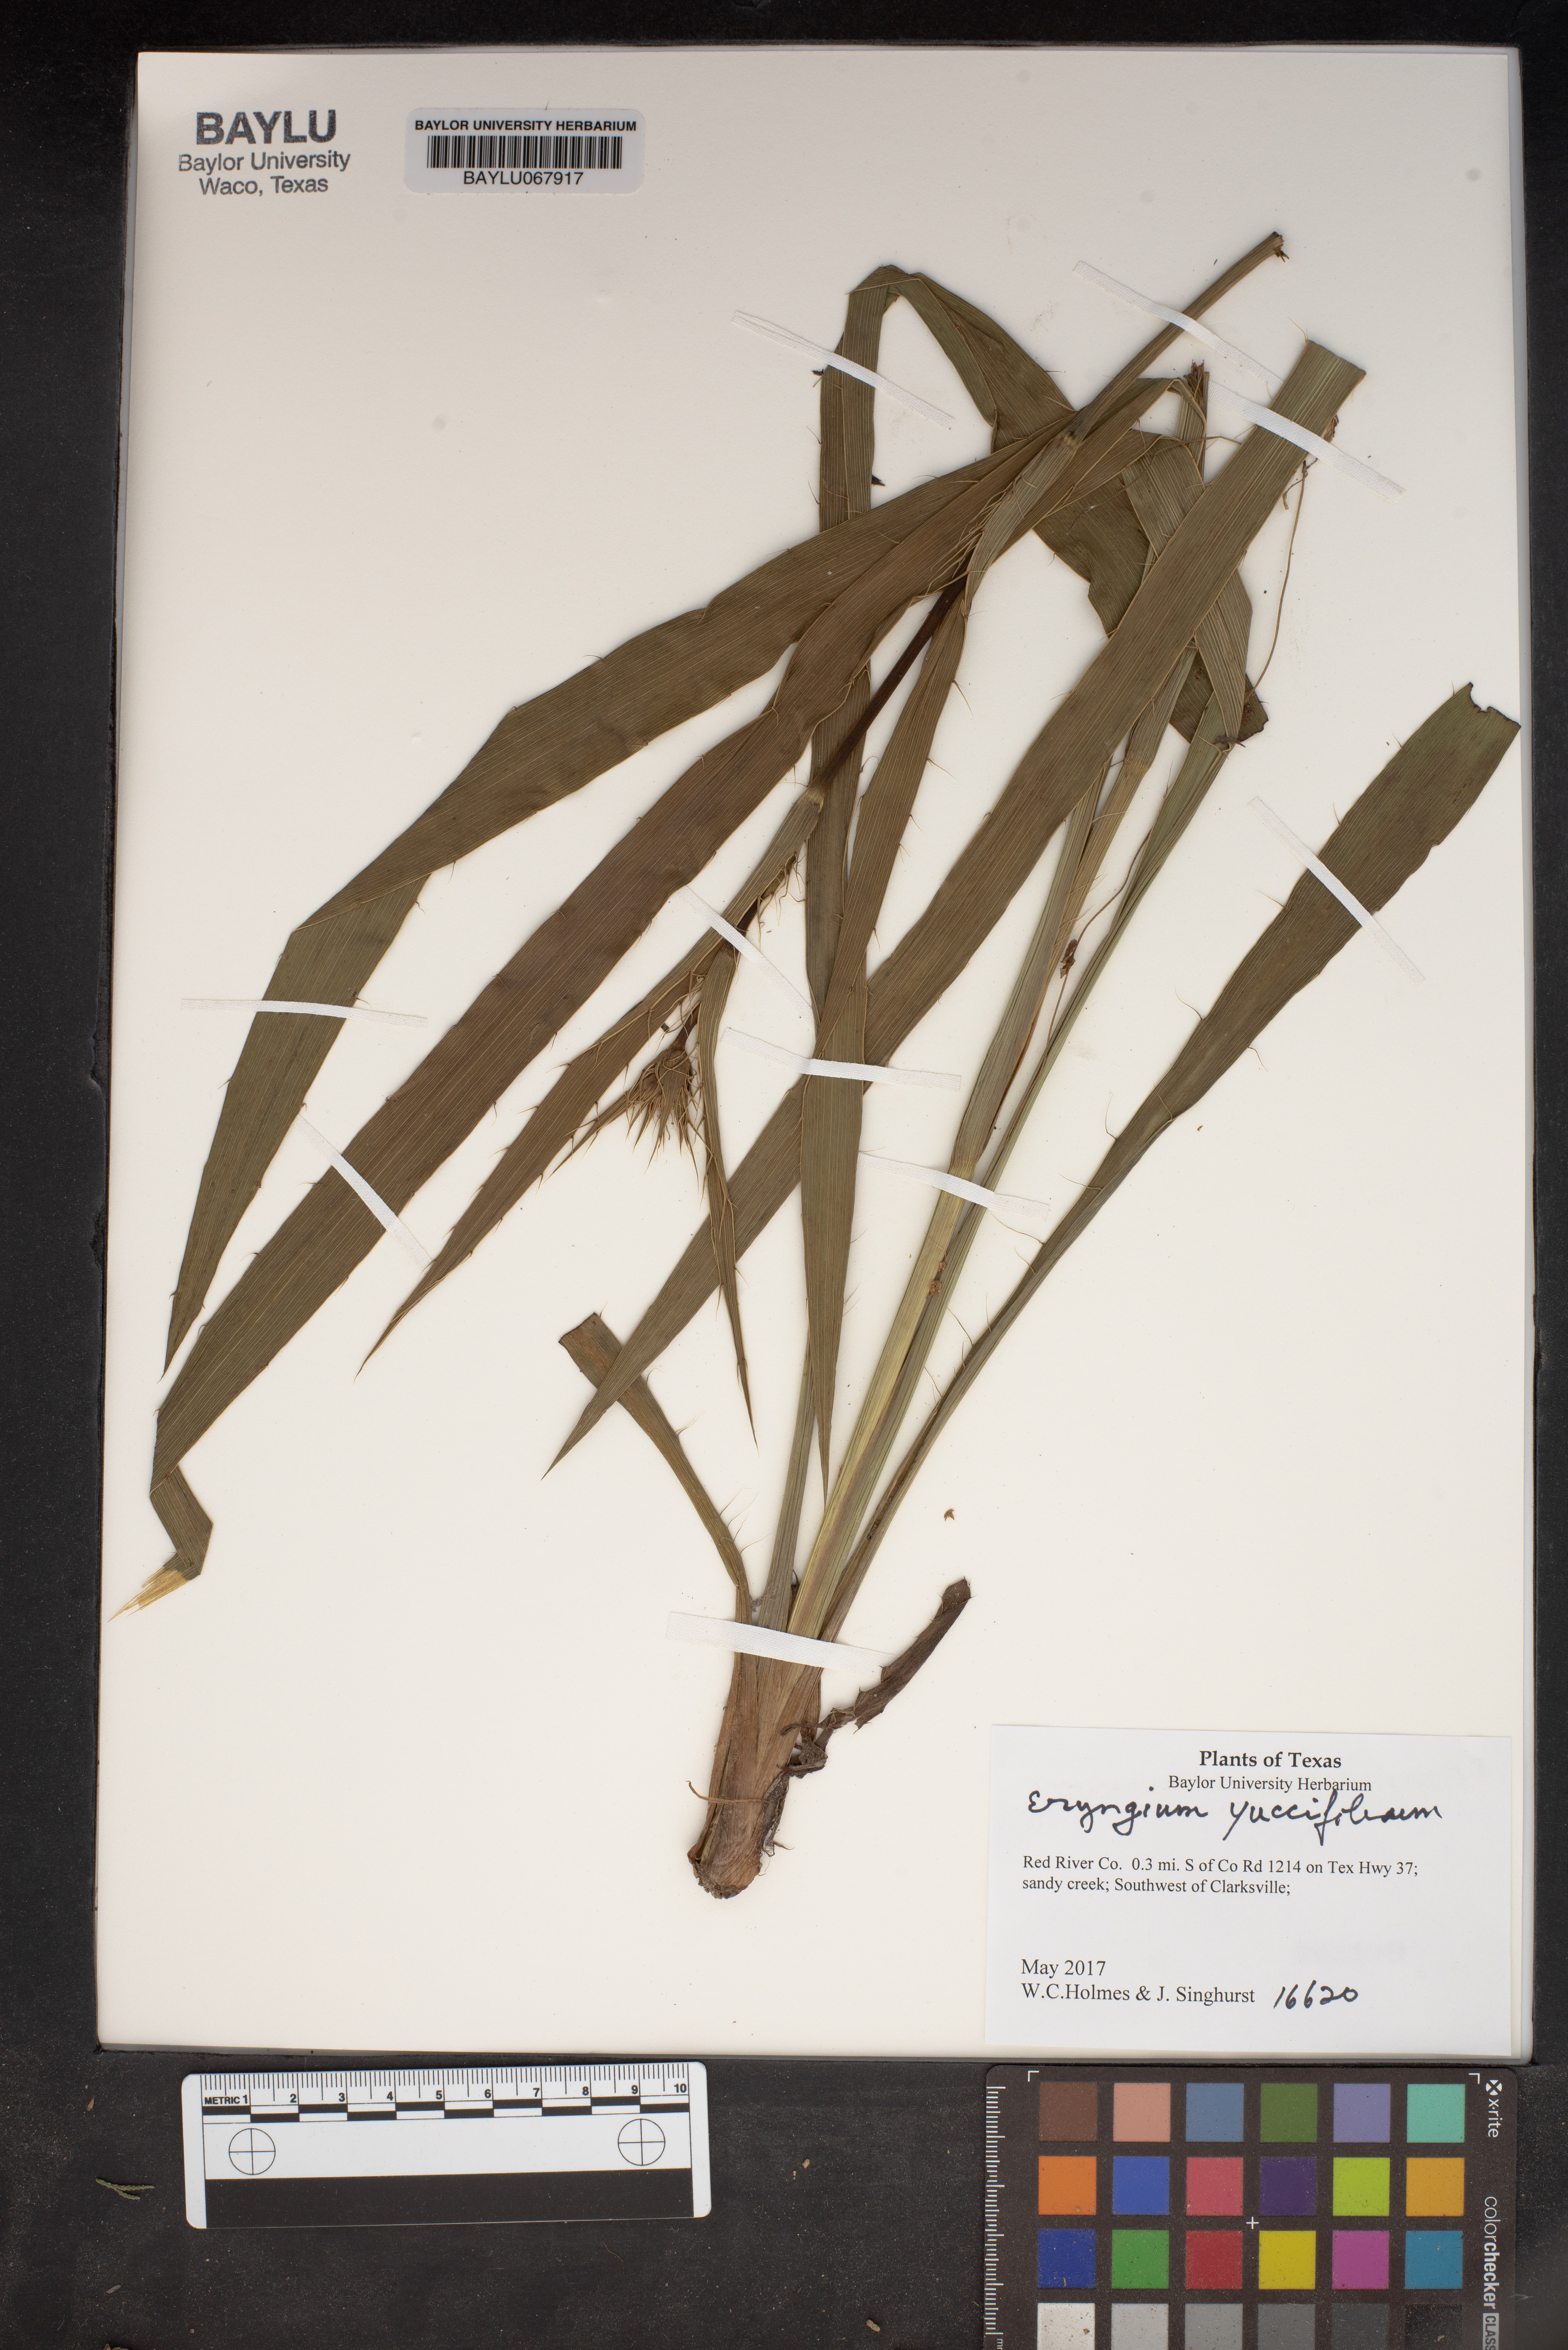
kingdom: Plantae
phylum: Tracheophyta
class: Magnoliopsida
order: Apiales
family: Apiaceae
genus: Eryngium
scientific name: Eryngium yuccifolium
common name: Button eryngo
